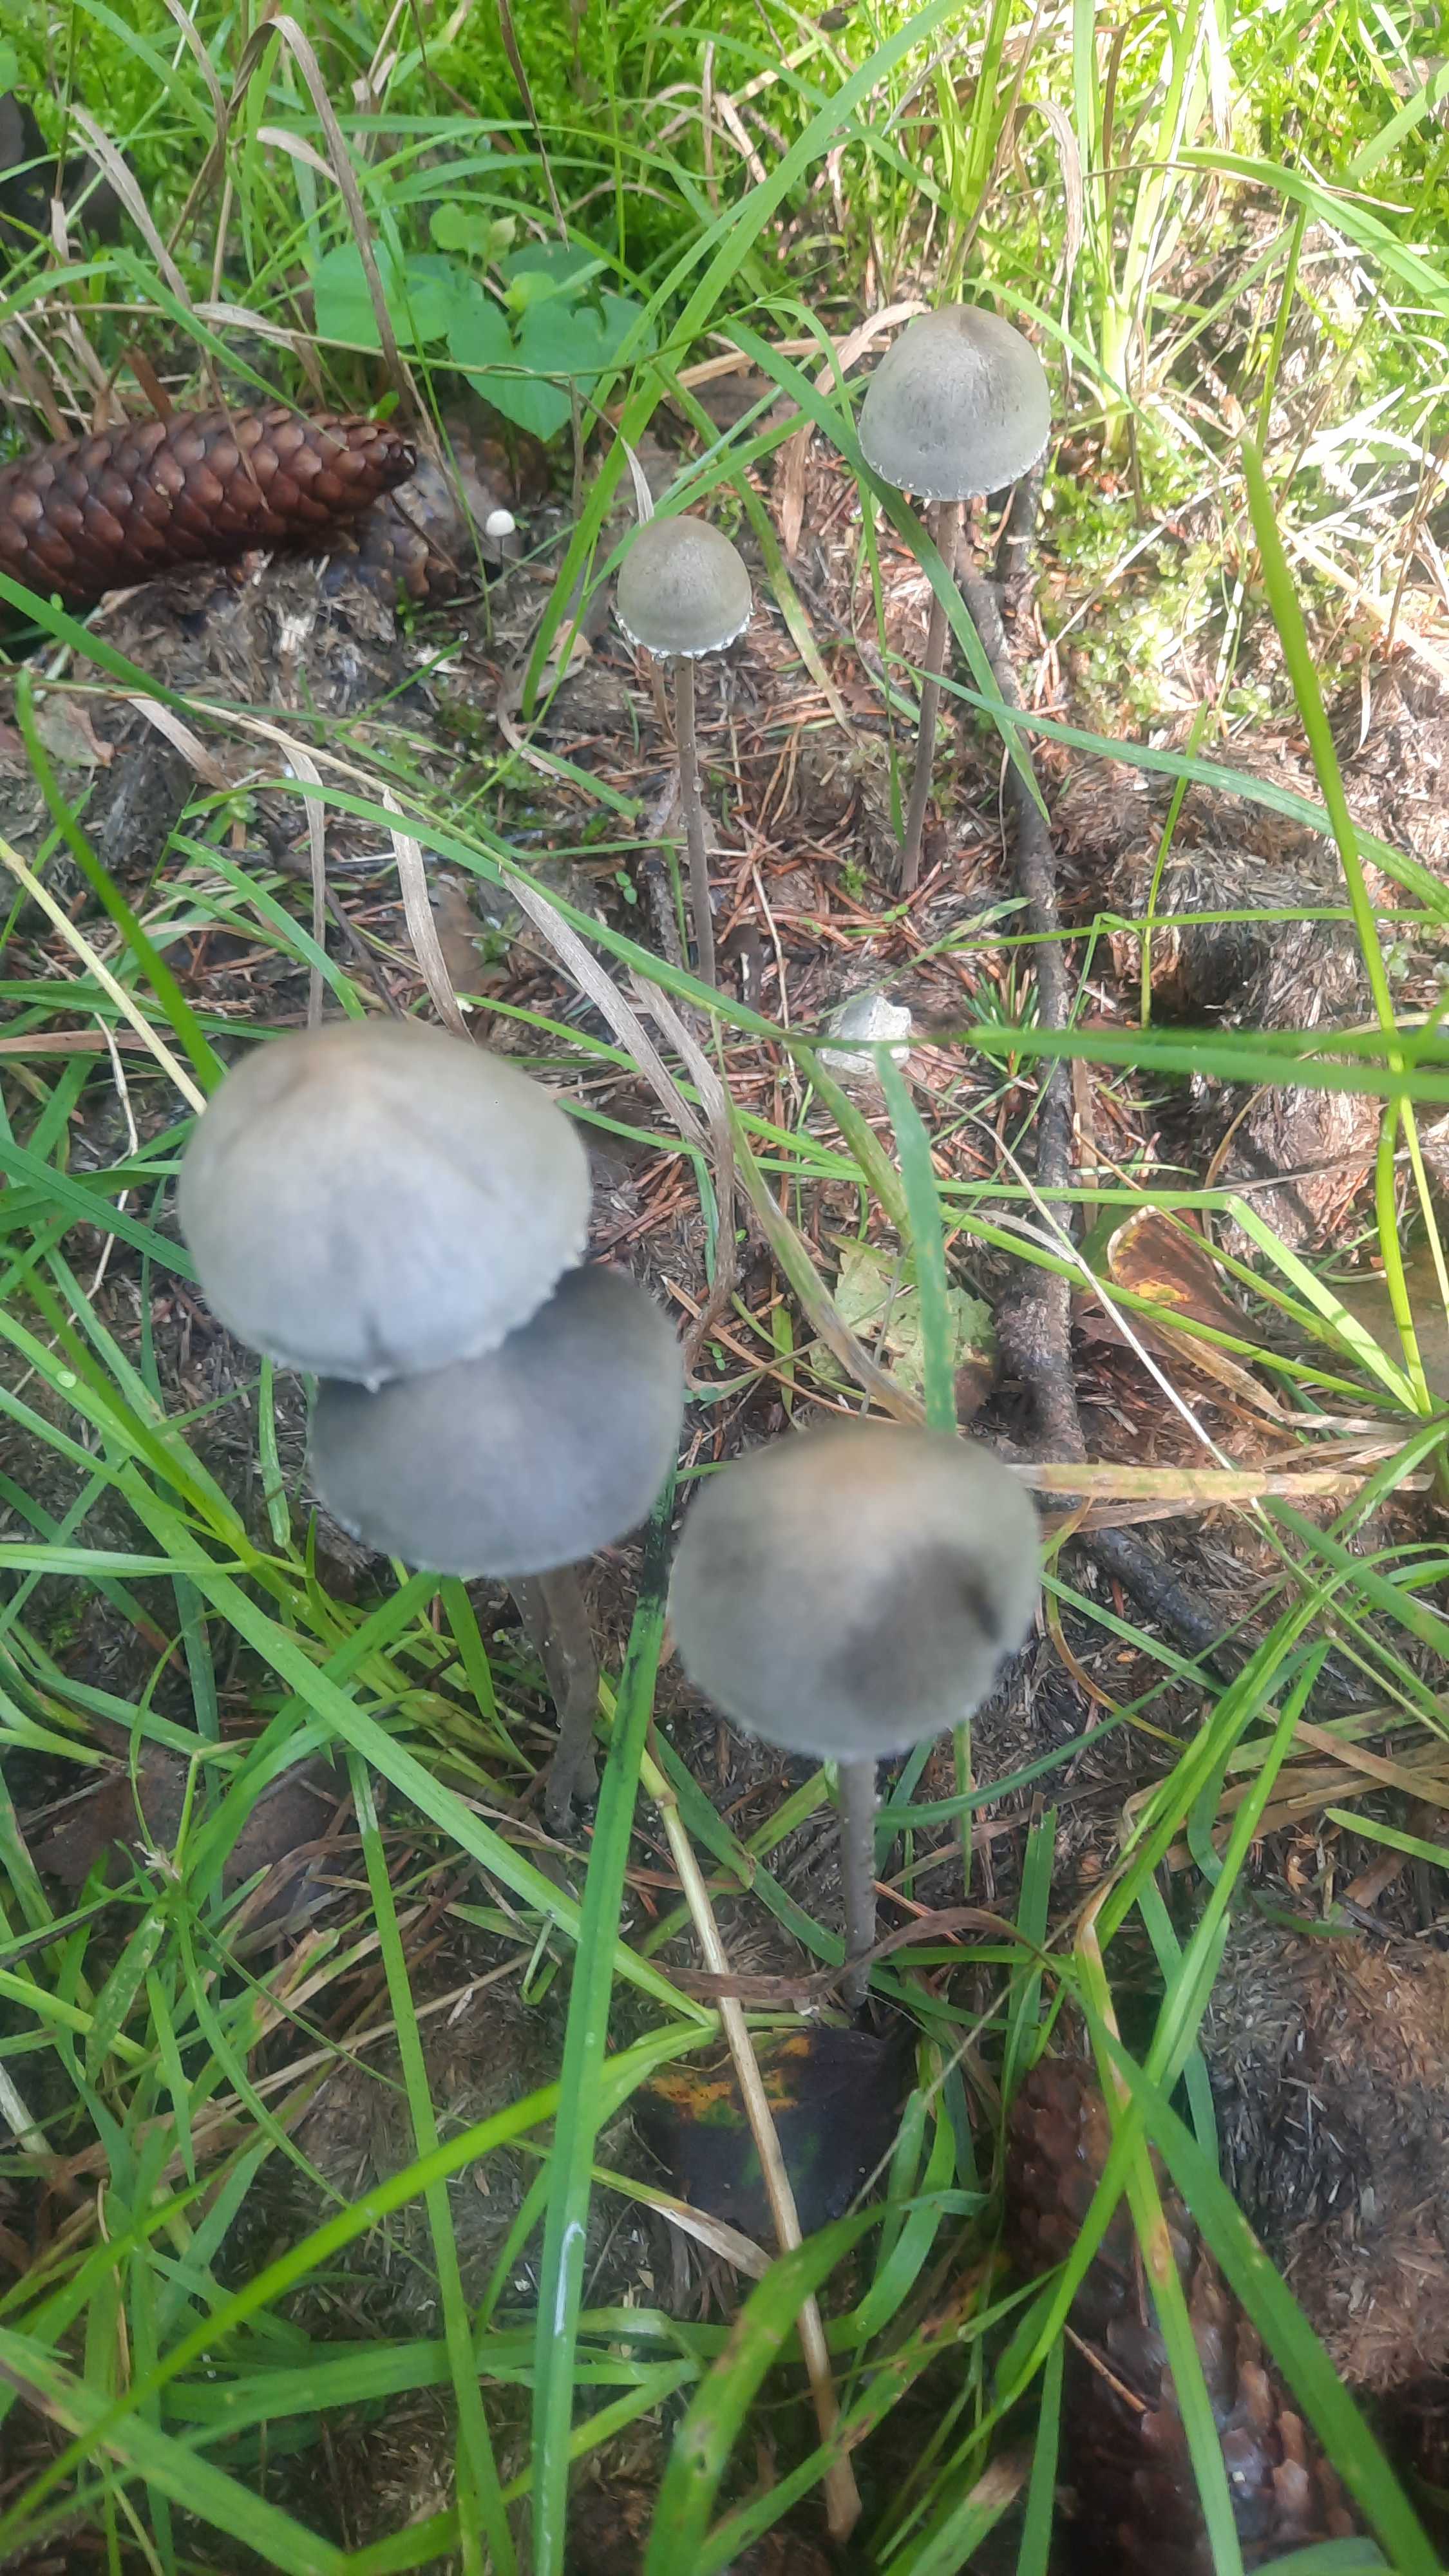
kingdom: Fungi
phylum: Basidiomycota
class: Agaricomycetes
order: Agaricales
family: Bolbitiaceae
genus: Panaeolus
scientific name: Panaeolus papilionaceus
